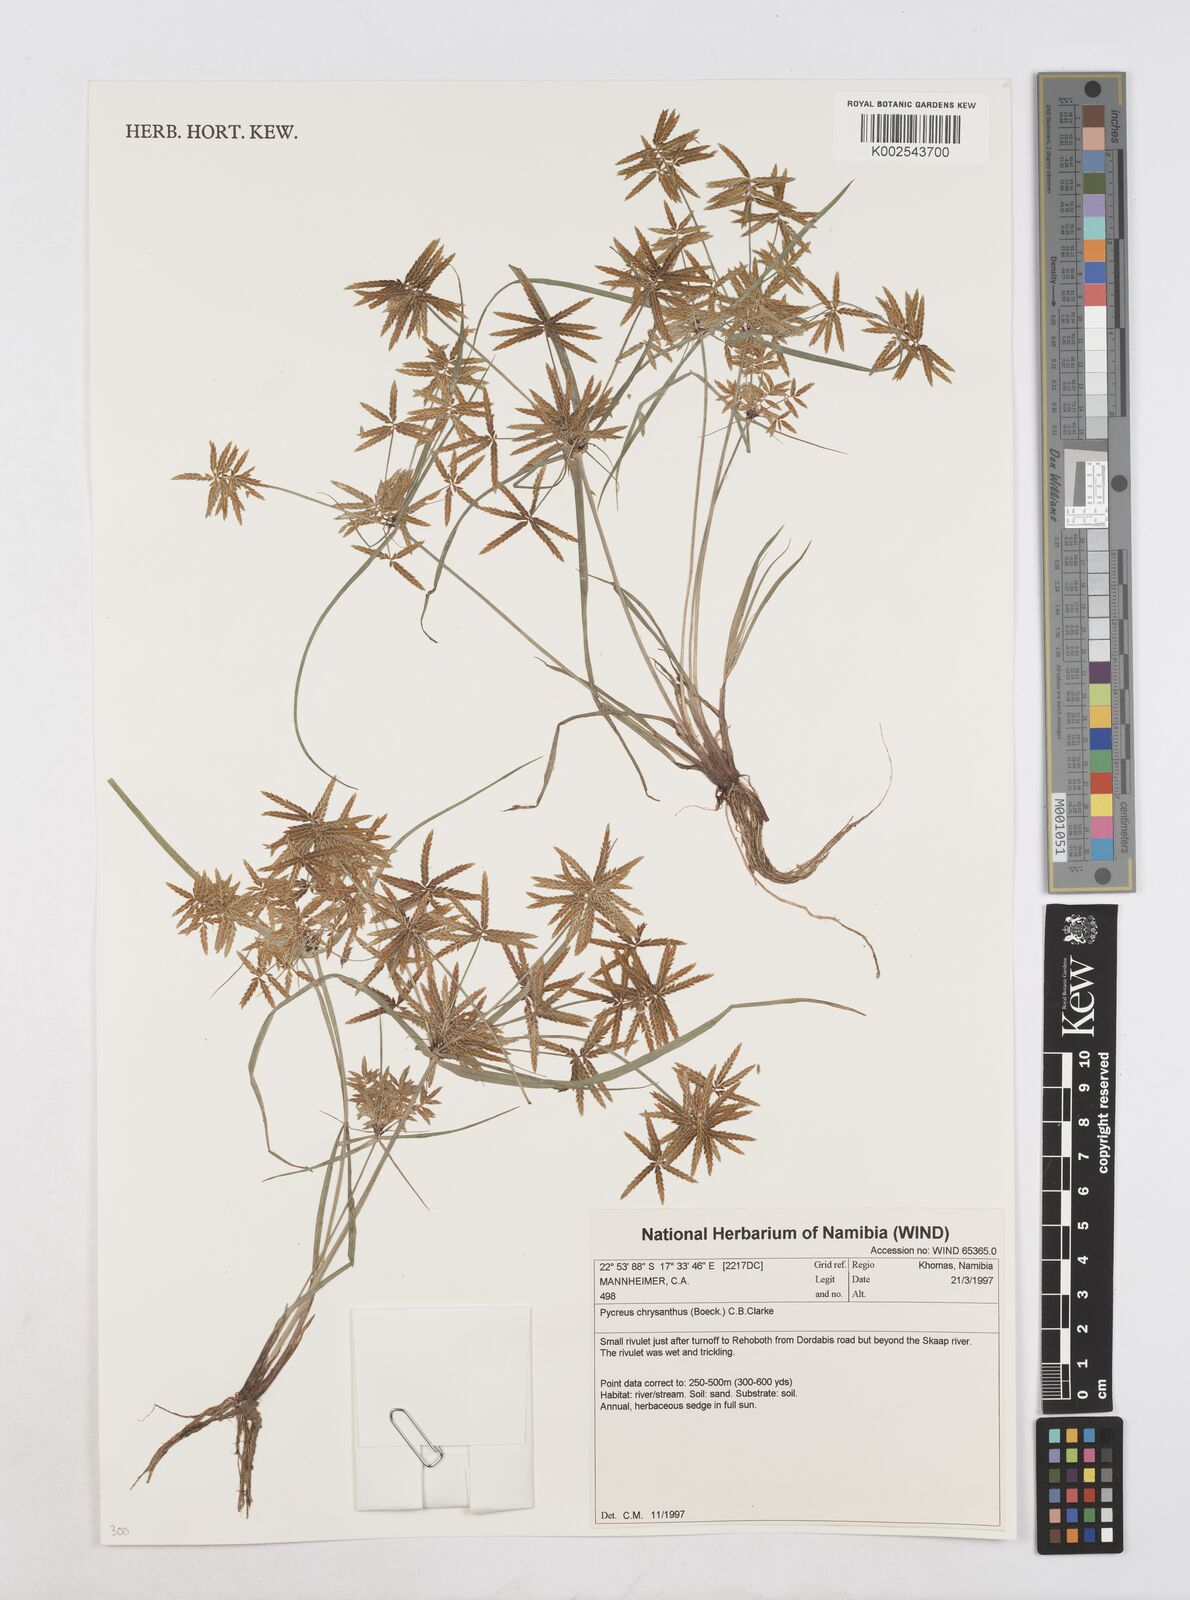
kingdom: Plantae
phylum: Tracheophyta
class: Liliopsida
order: Poales
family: Cyperaceae
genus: Cyperus
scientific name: Cyperus chrysanthus
